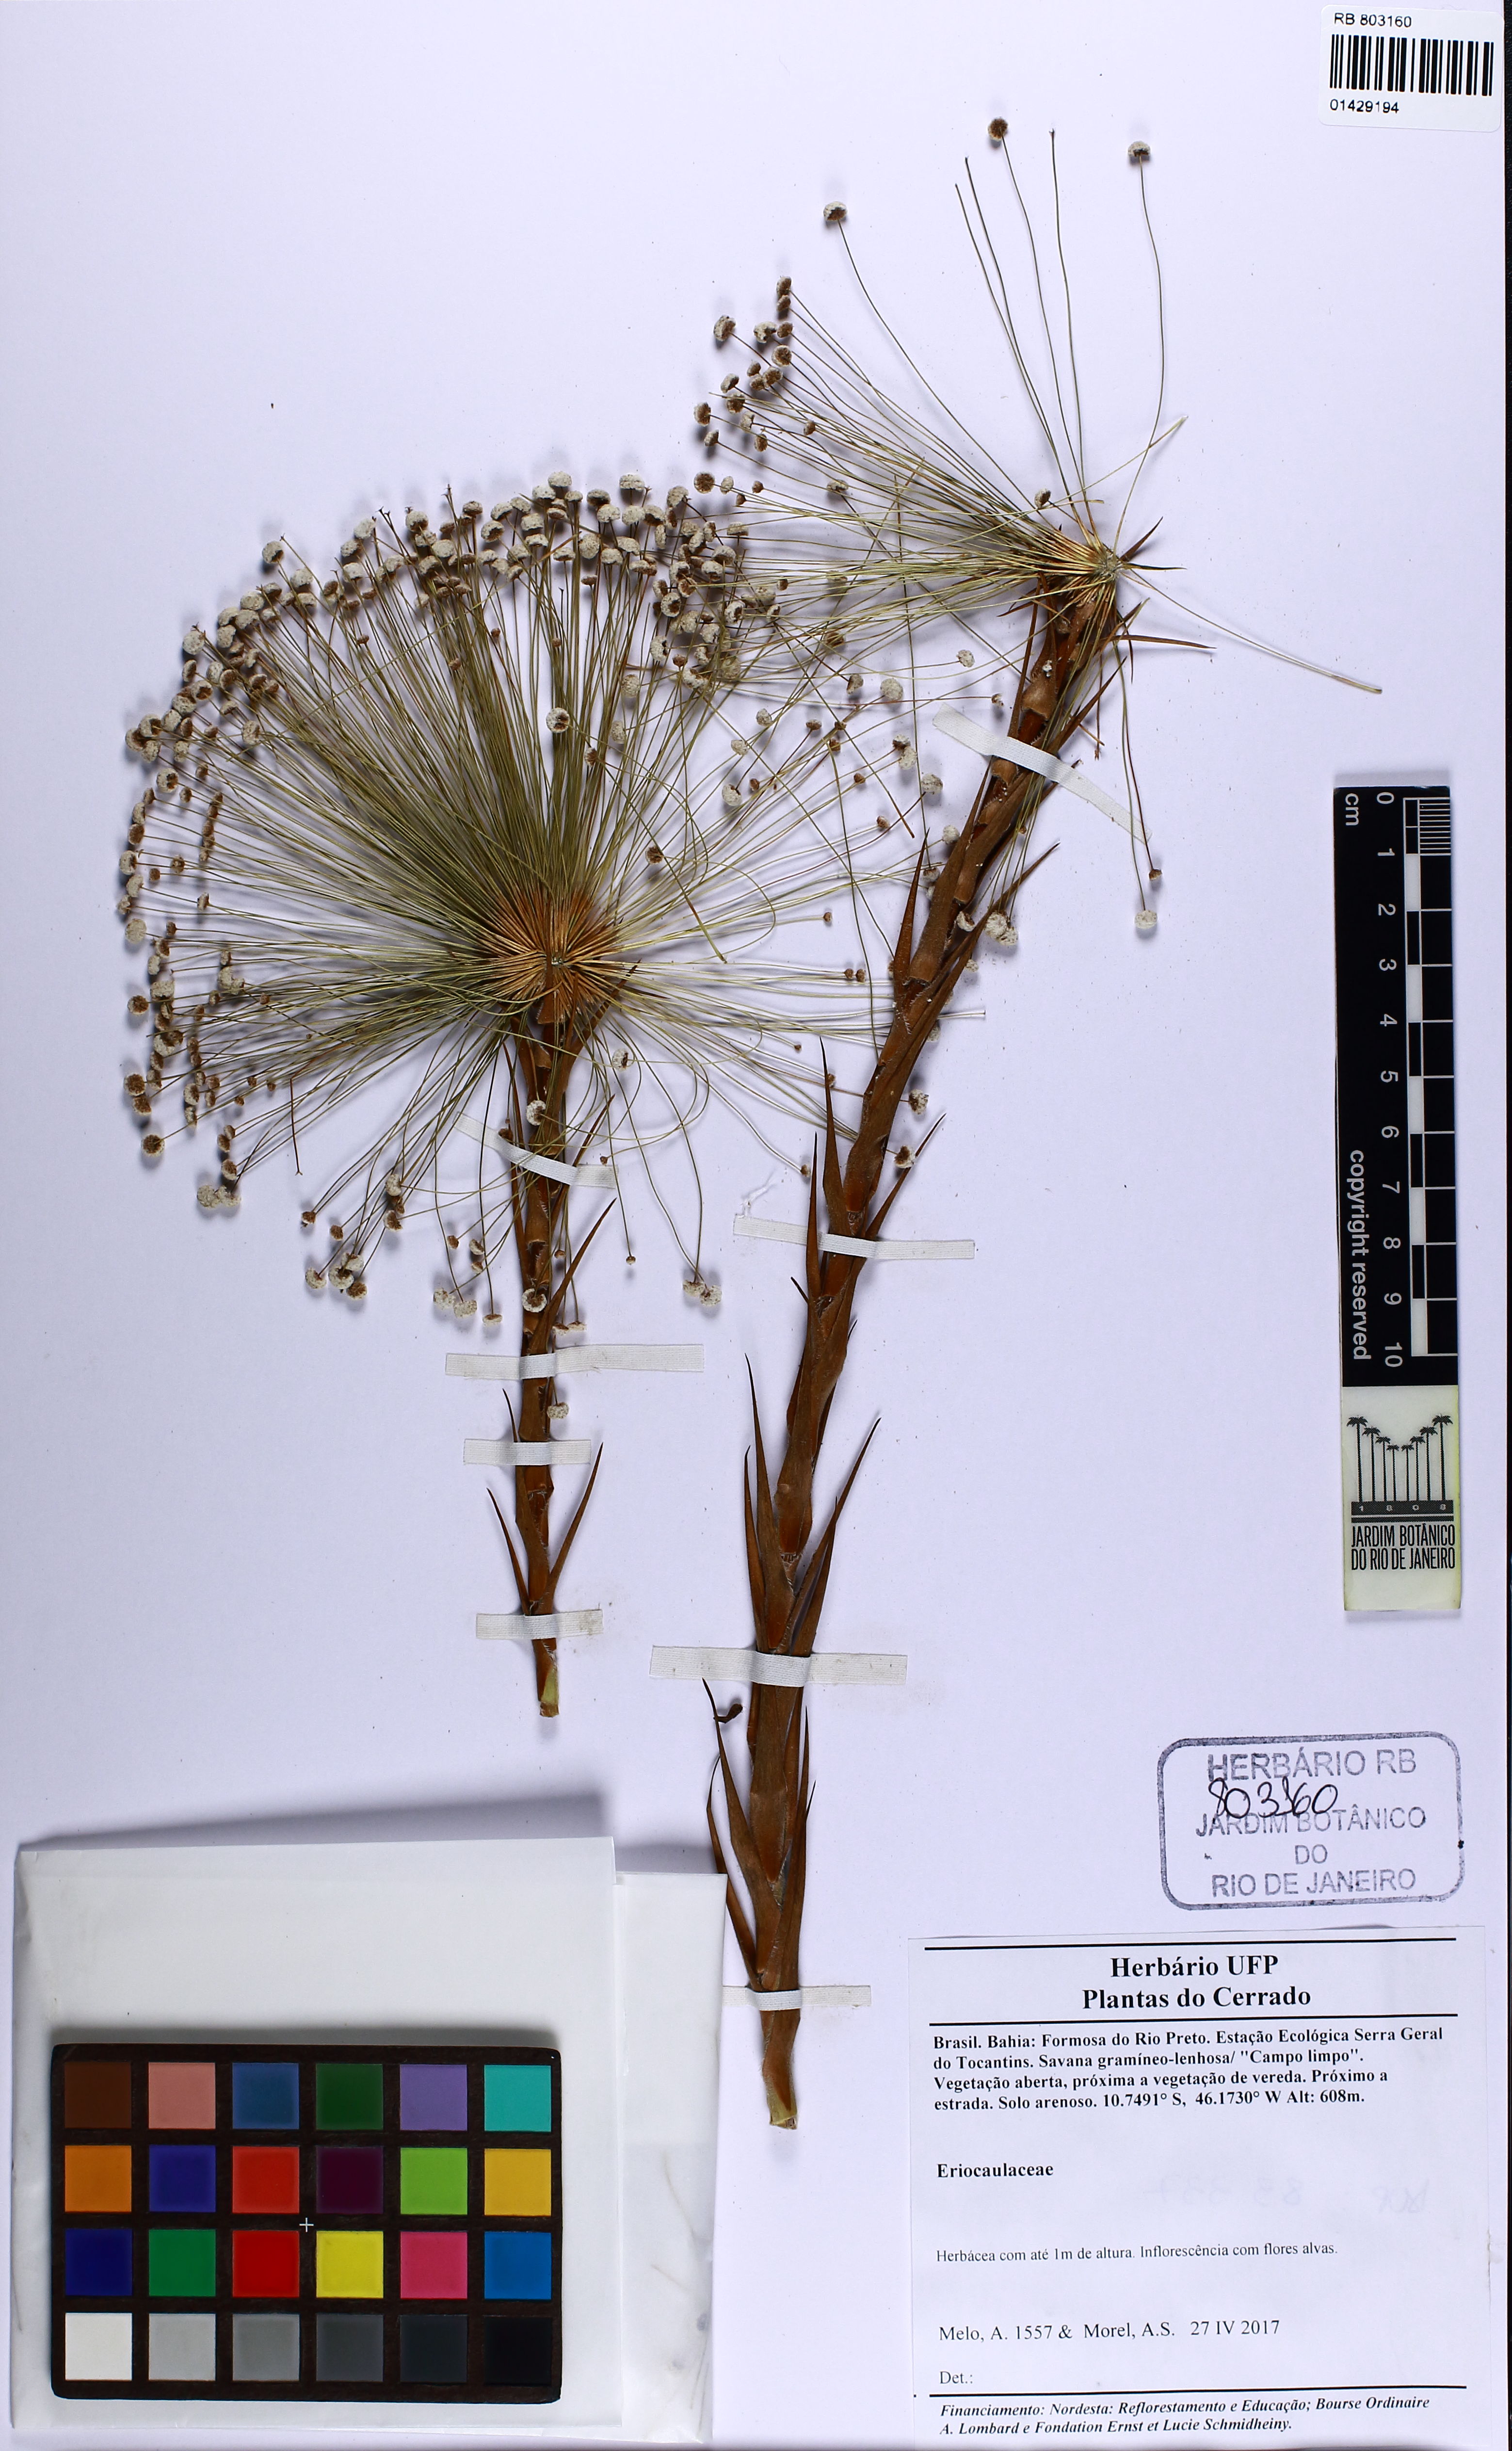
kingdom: Plantae
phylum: Tracheophyta
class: Liliopsida
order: Poales
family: Eriocaulaceae
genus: Paepalanthus
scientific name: Paepalanthus hilairei
